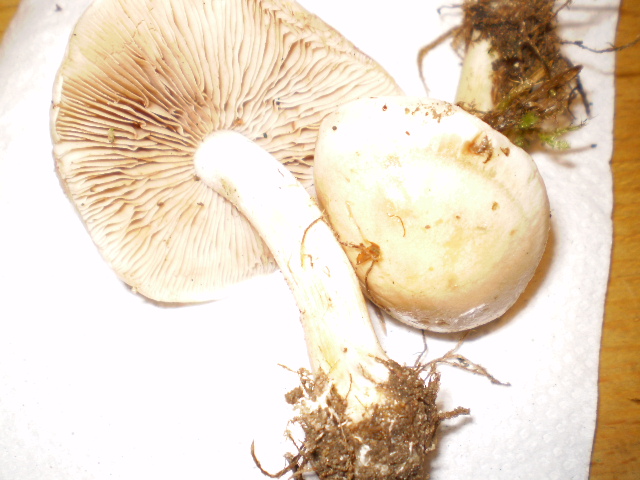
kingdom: Fungi
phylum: Basidiomycota
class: Agaricomycetes
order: Agaricales
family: Hymenogastraceae
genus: Hebeloma
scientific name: Hebeloma leucosarx
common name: højstokket tåreblad
